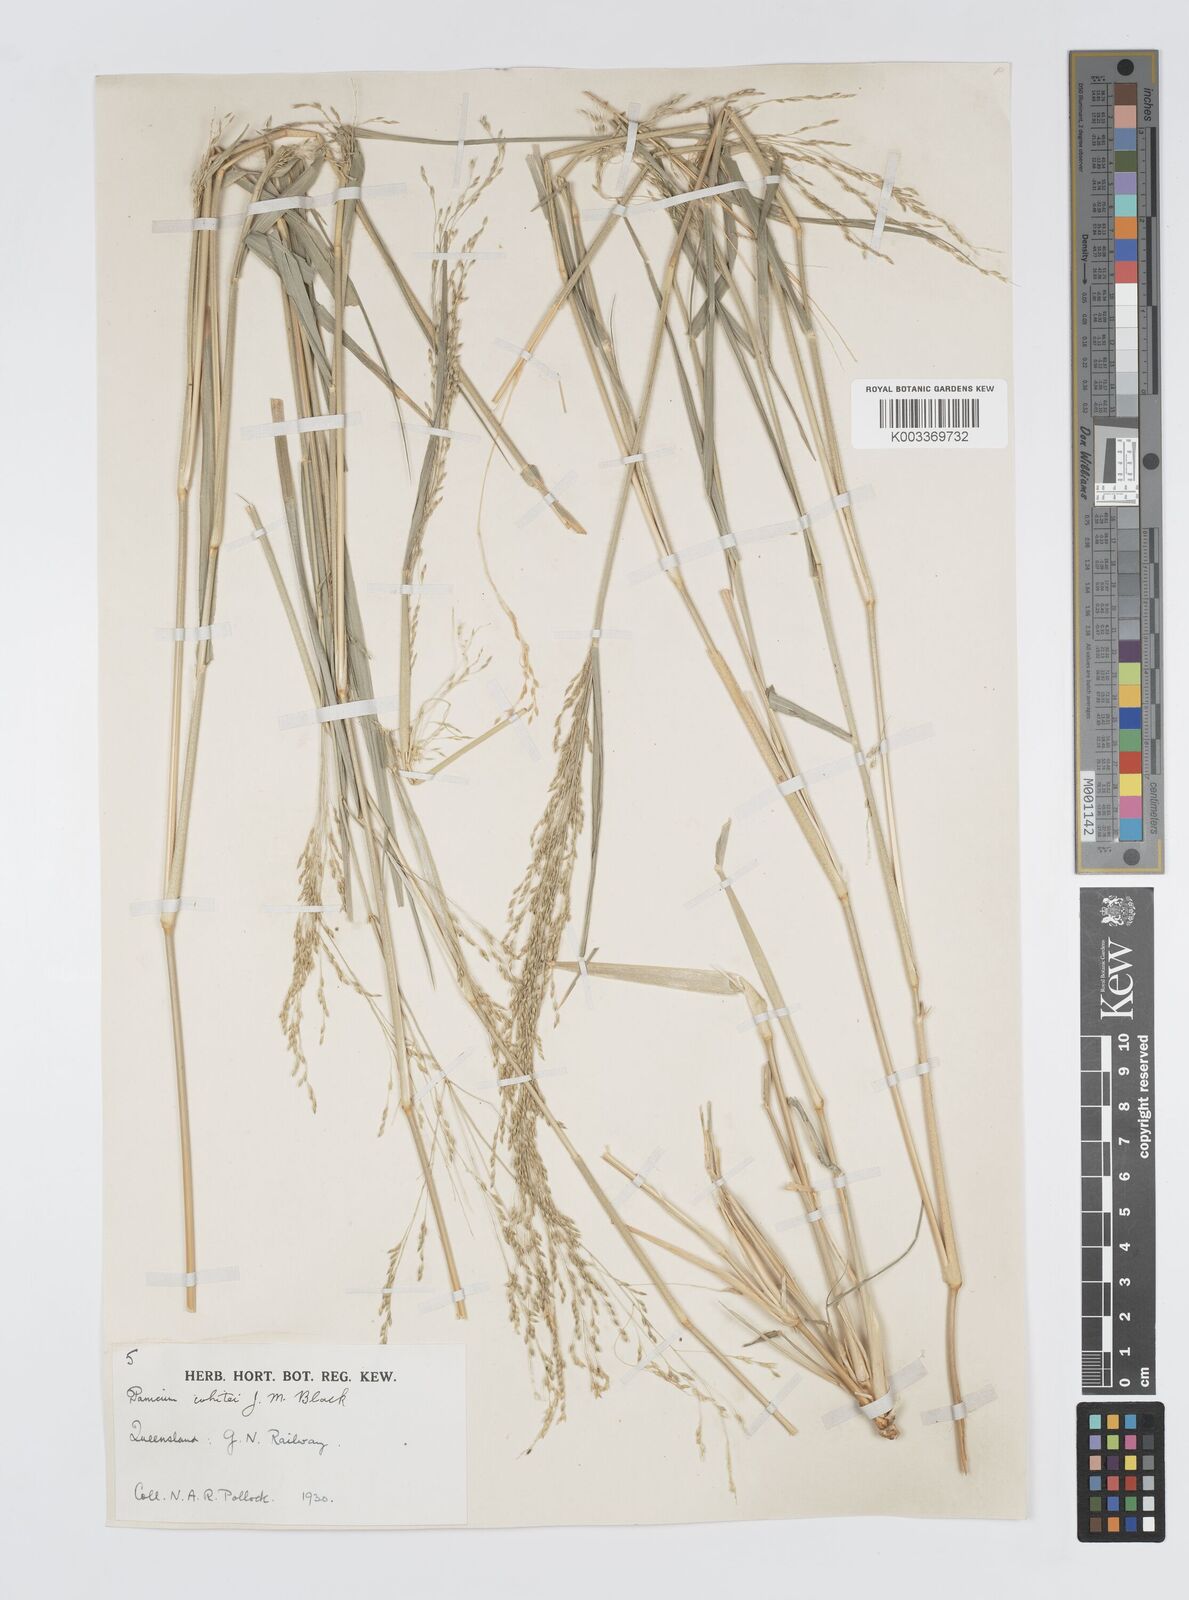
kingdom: Plantae
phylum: Tracheophyta
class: Liliopsida
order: Poales
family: Poaceae
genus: Panicum
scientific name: Panicum laevinode
